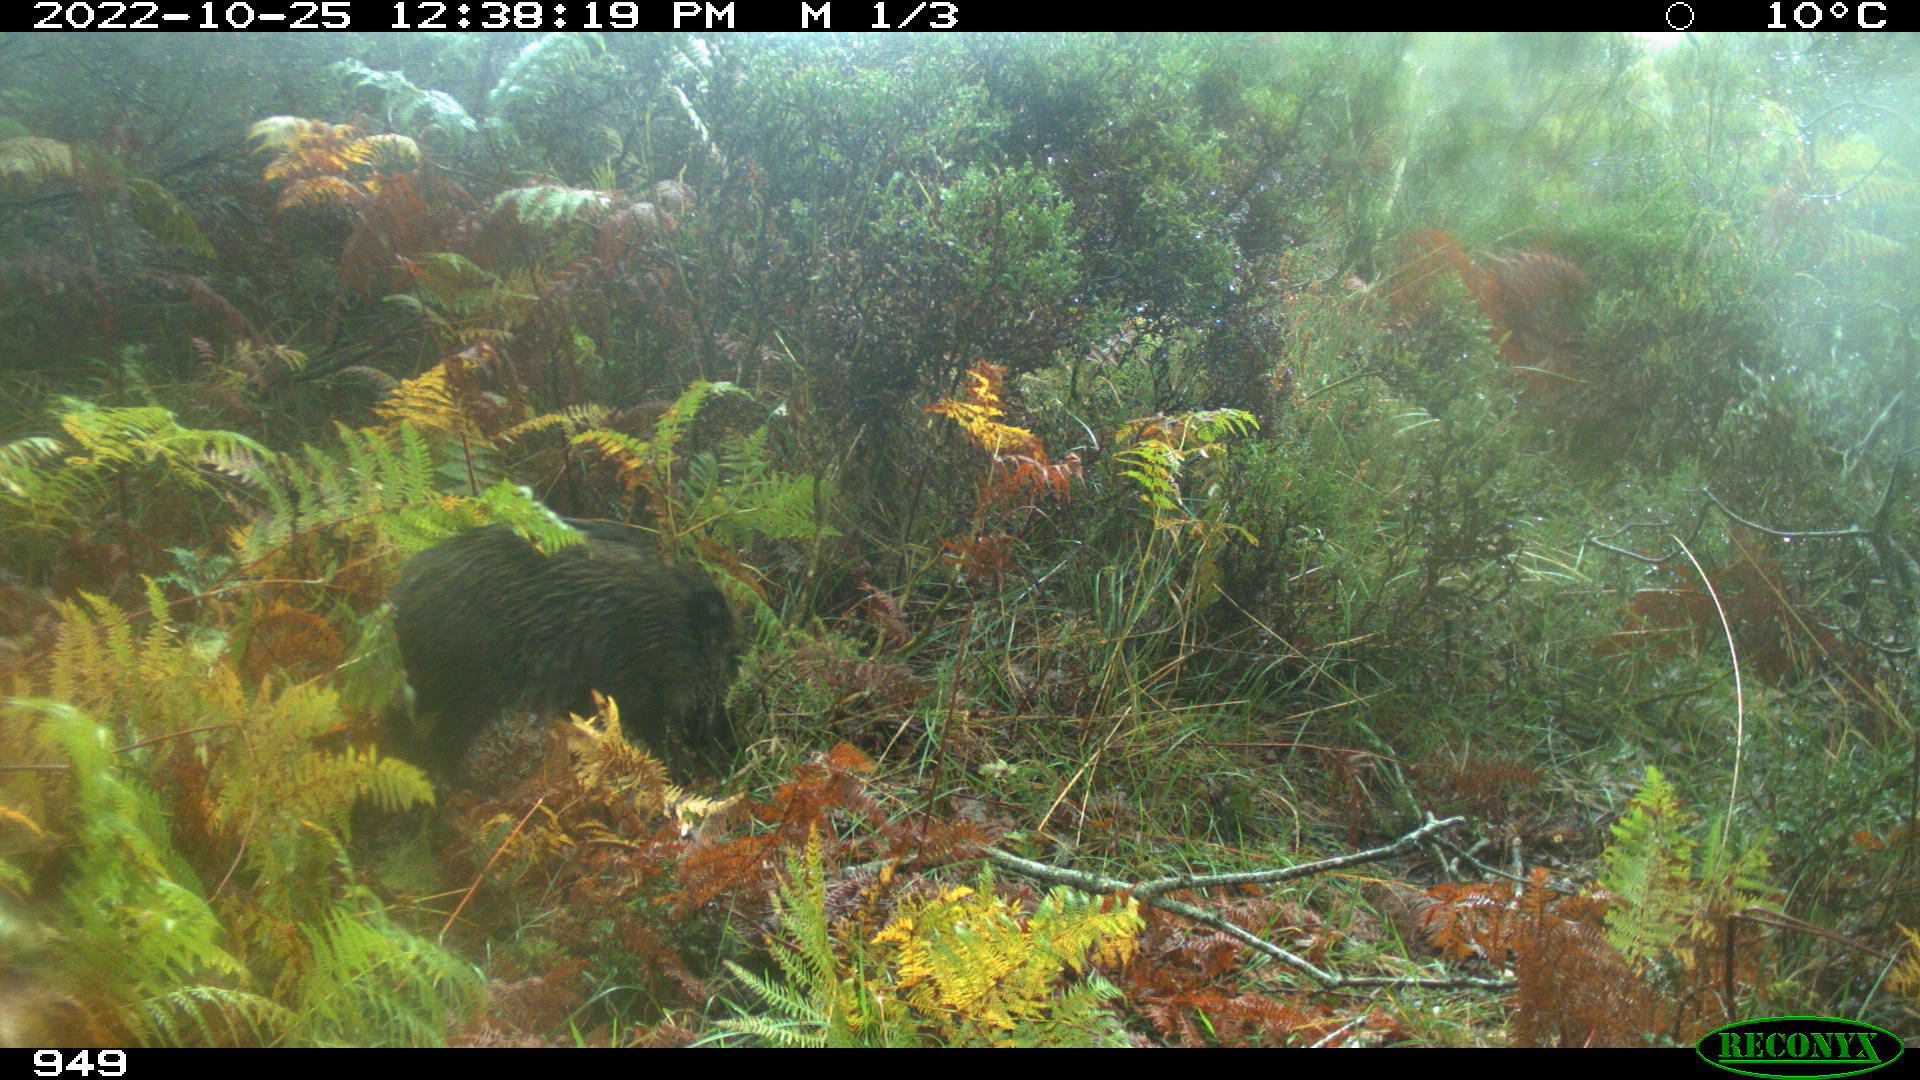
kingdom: Animalia
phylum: Chordata
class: Mammalia
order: Artiodactyla
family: Suidae
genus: Sus
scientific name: Sus scrofa
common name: Wild boar
